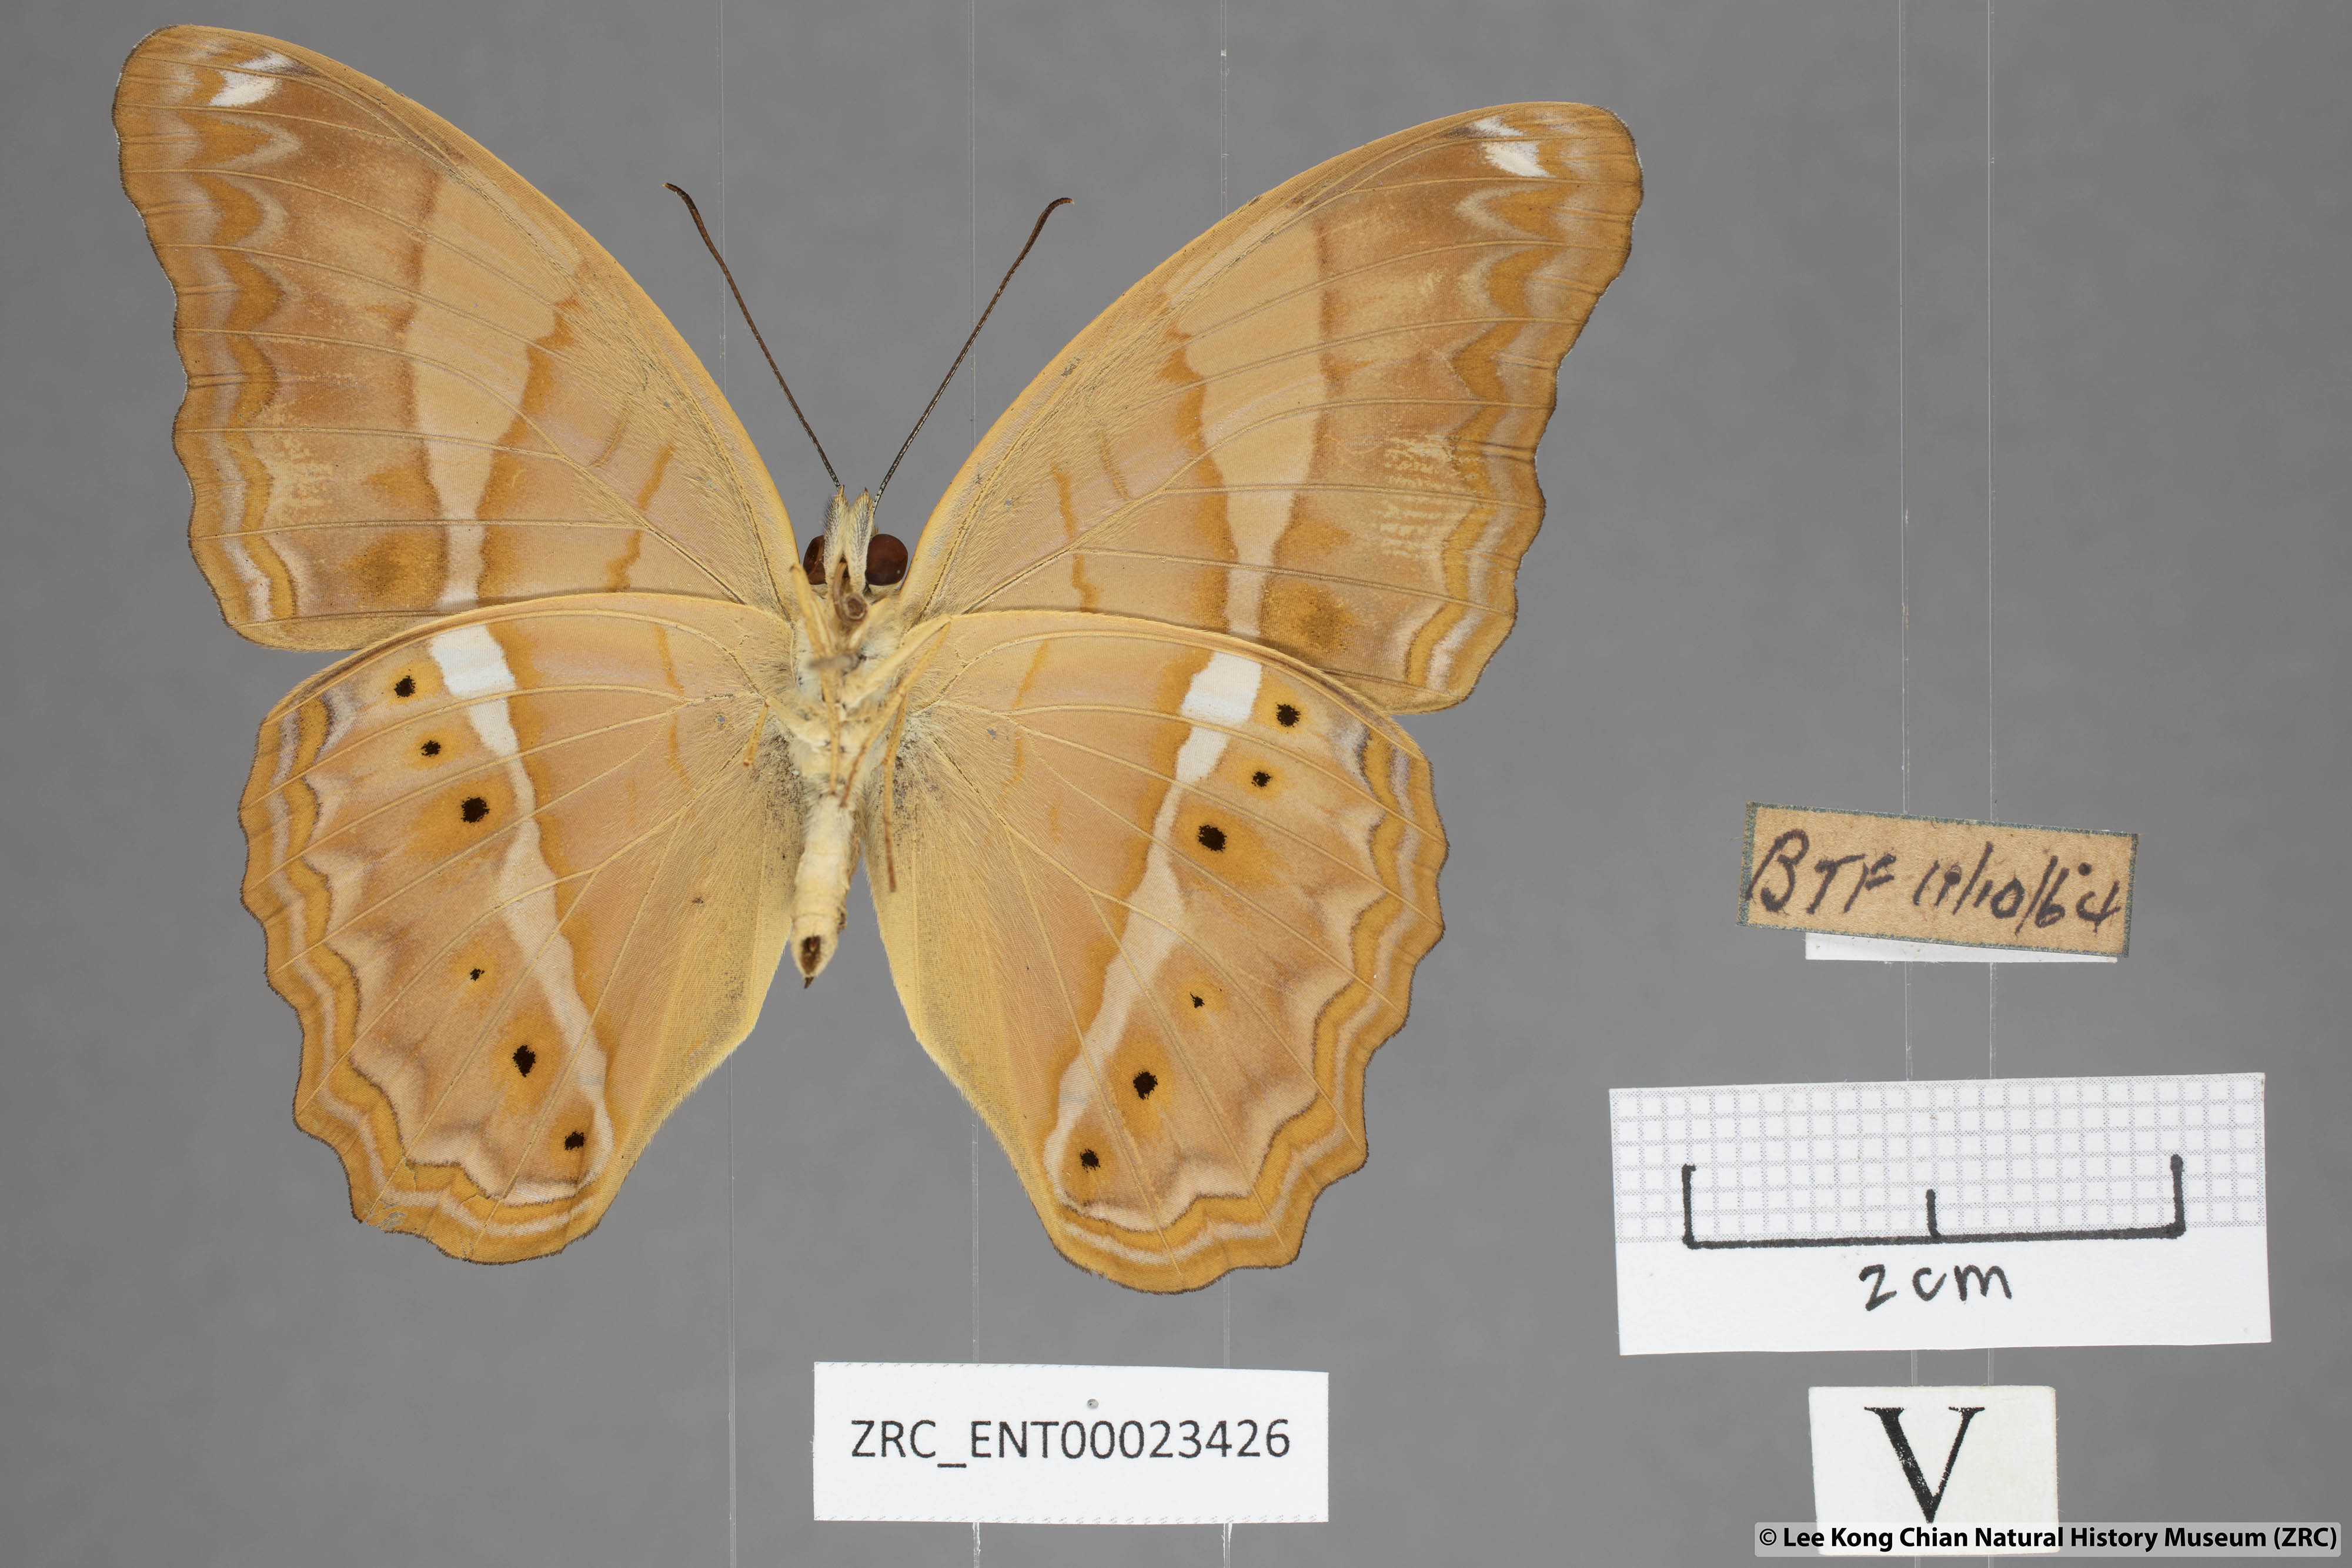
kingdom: Animalia
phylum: Arthropoda
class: Insecta
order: Lepidoptera
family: Nymphalidae
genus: Cirrochroa
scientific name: Cirrochroa emalea
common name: Malay yeoman
